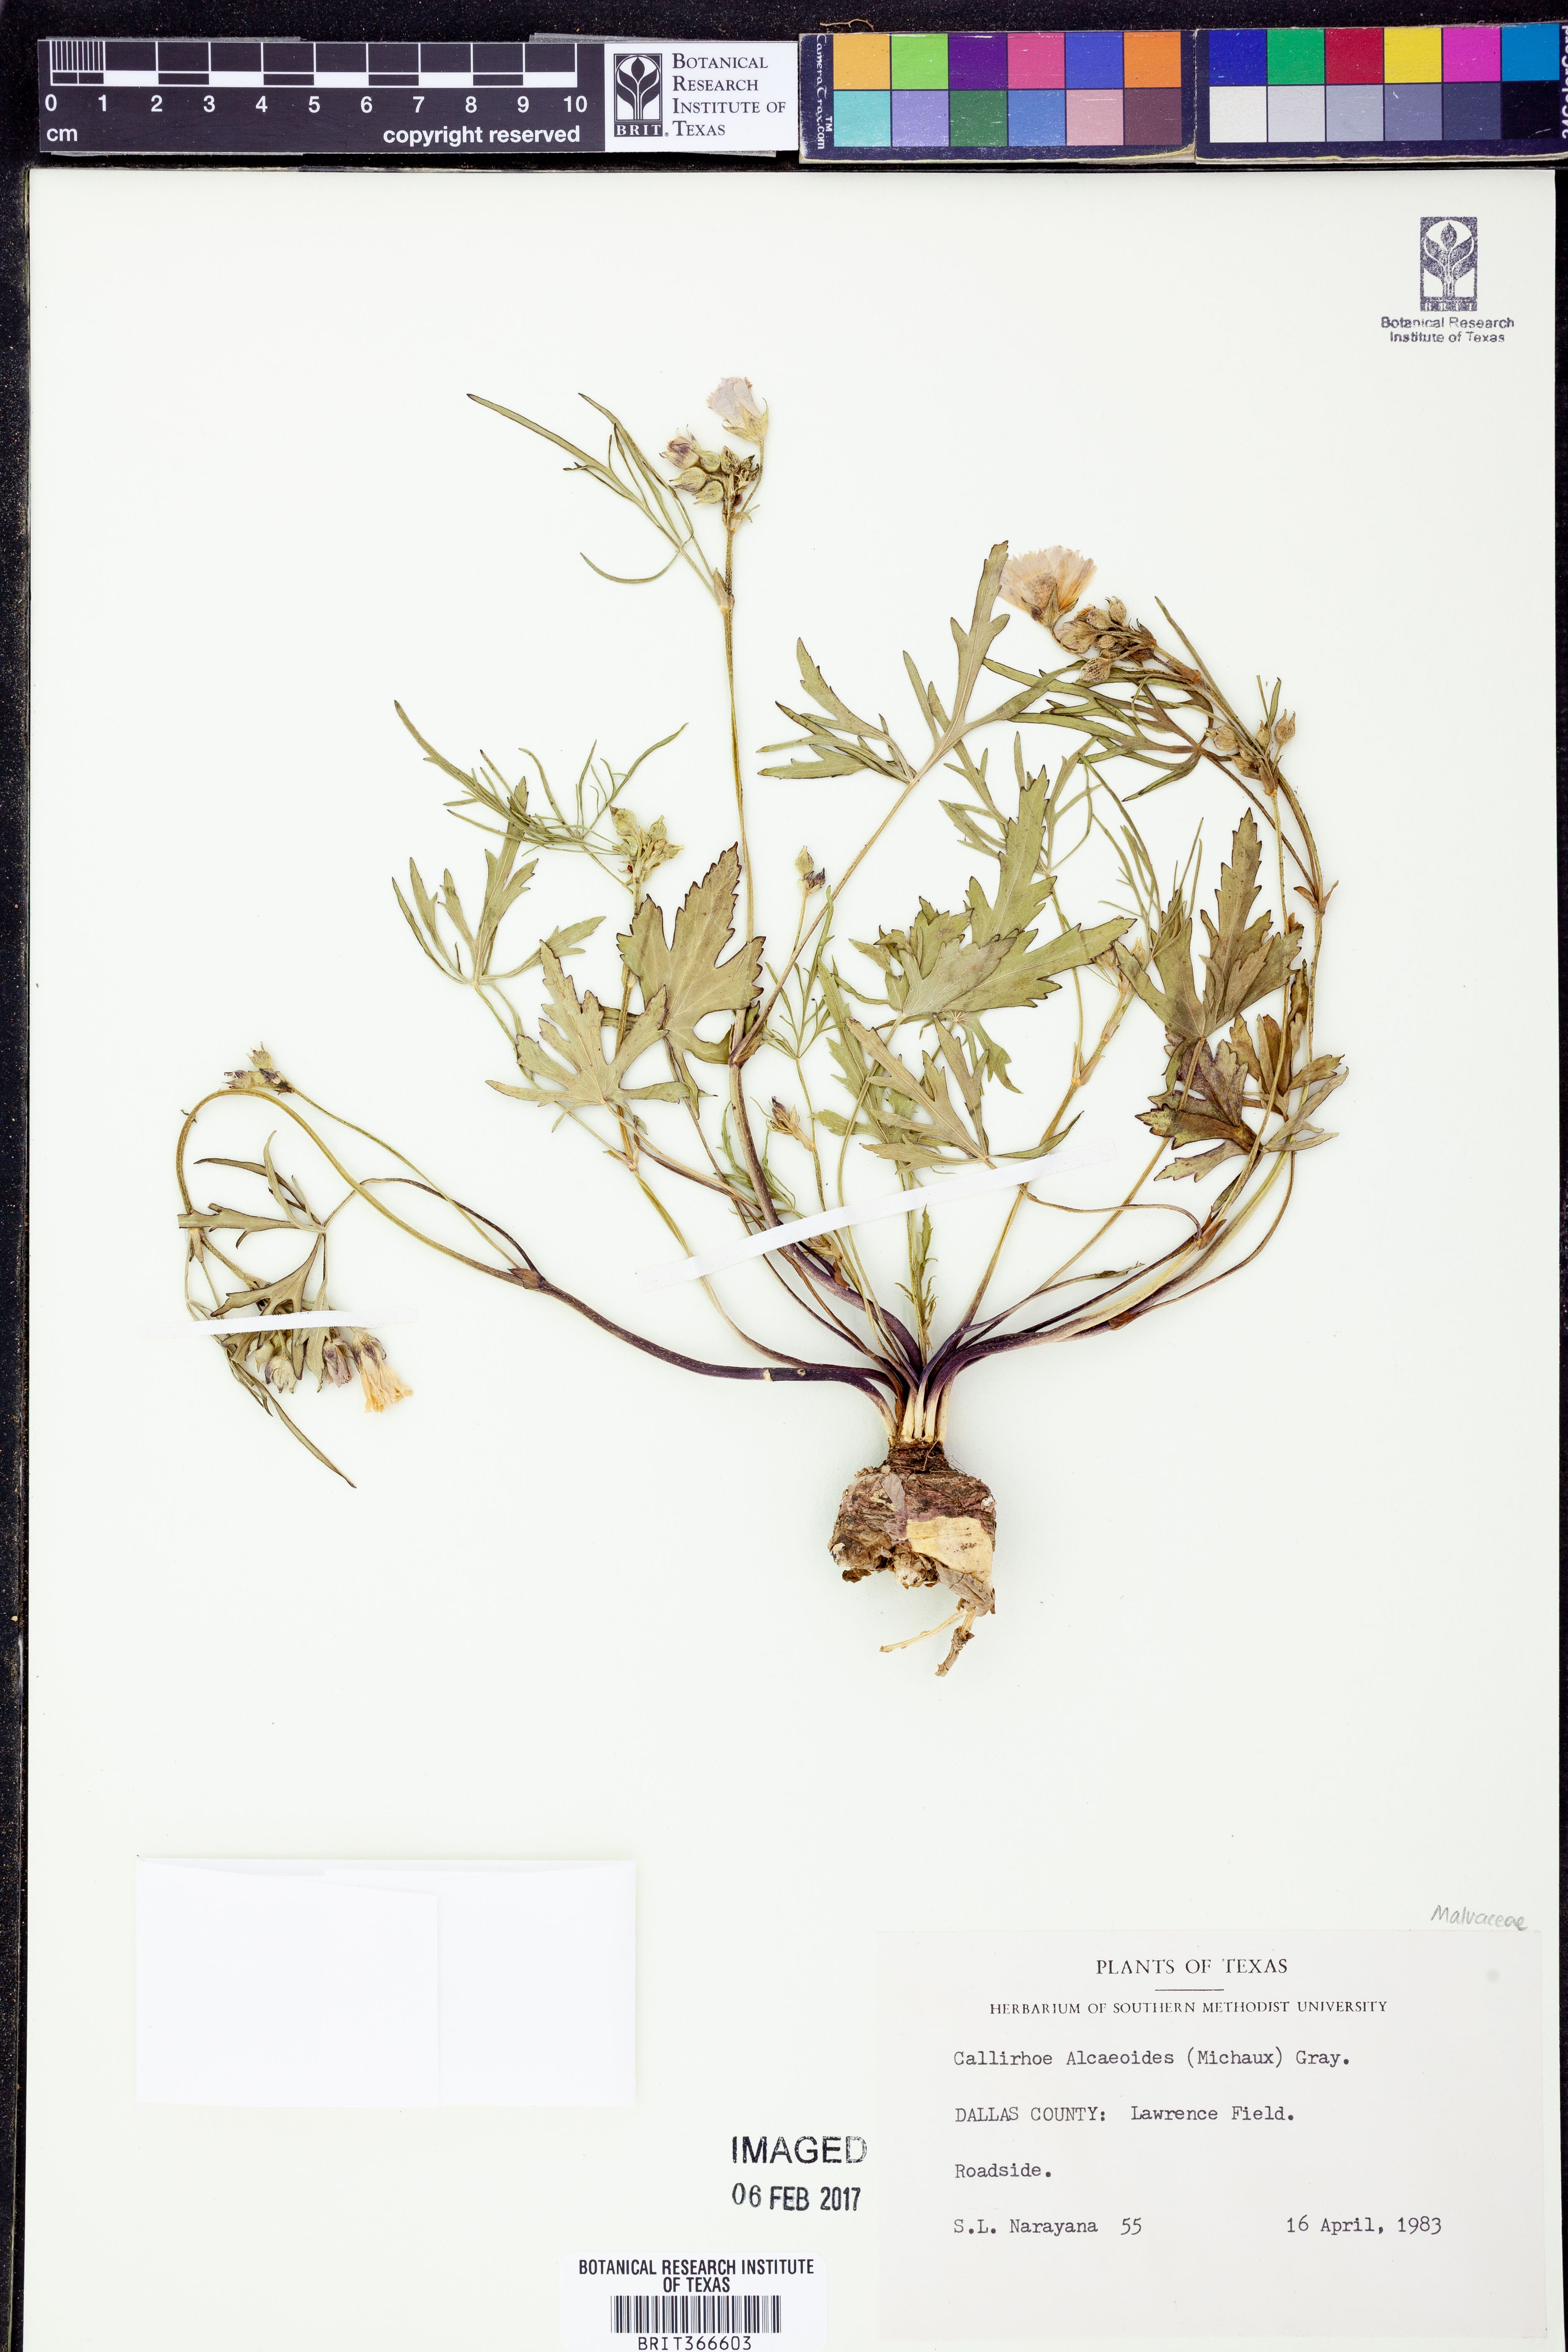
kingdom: Plantae
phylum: Tracheophyta
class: Magnoliopsida
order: Malvales
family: Malvaceae
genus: Callirhoe
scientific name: Callirhoe alcaeoides
